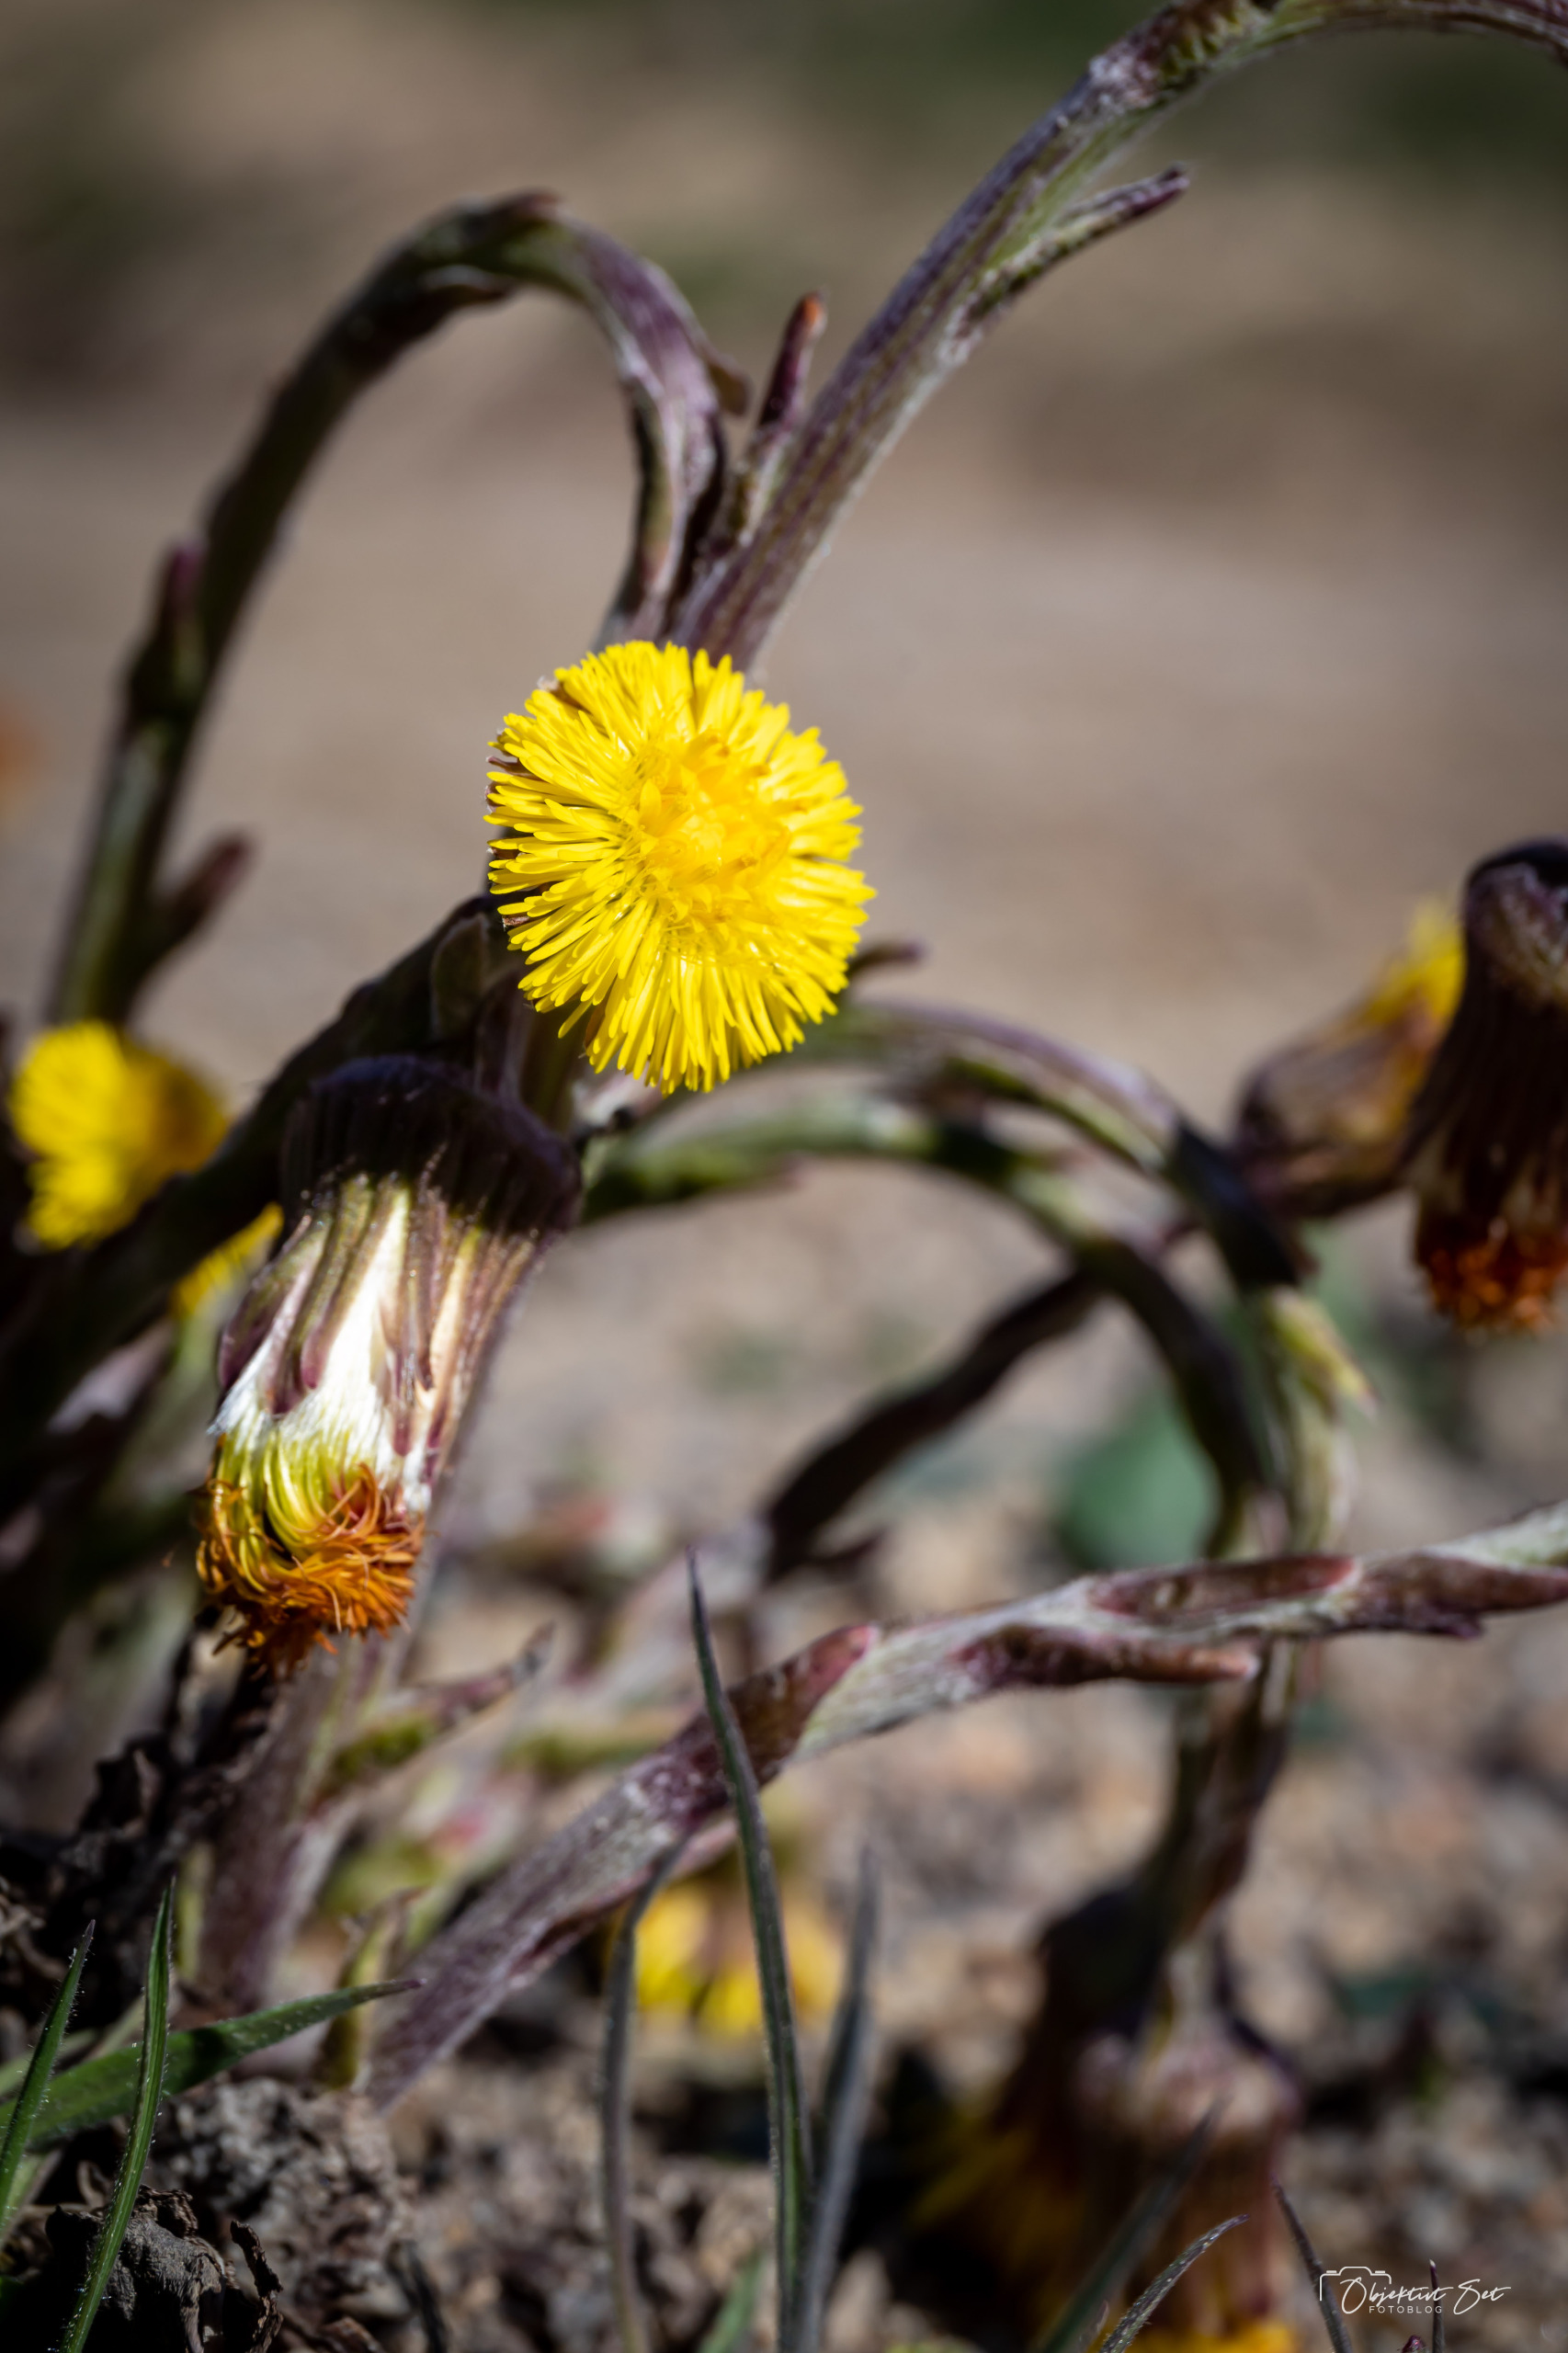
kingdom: Plantae
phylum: Tracheophyta
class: Magnoliopsida
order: Asterales
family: Asteraceae
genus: Tussilago
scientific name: Tussilago farfara
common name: Følfod
